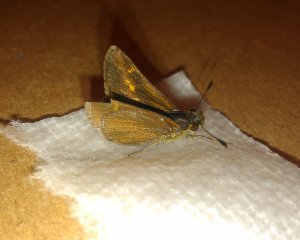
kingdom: Animalia
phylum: Arthropoda
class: Insecta
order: Lepidoptera
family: Hesperiidae
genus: Polites
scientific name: Polites themistocles
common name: Tawny-edged Skipper
